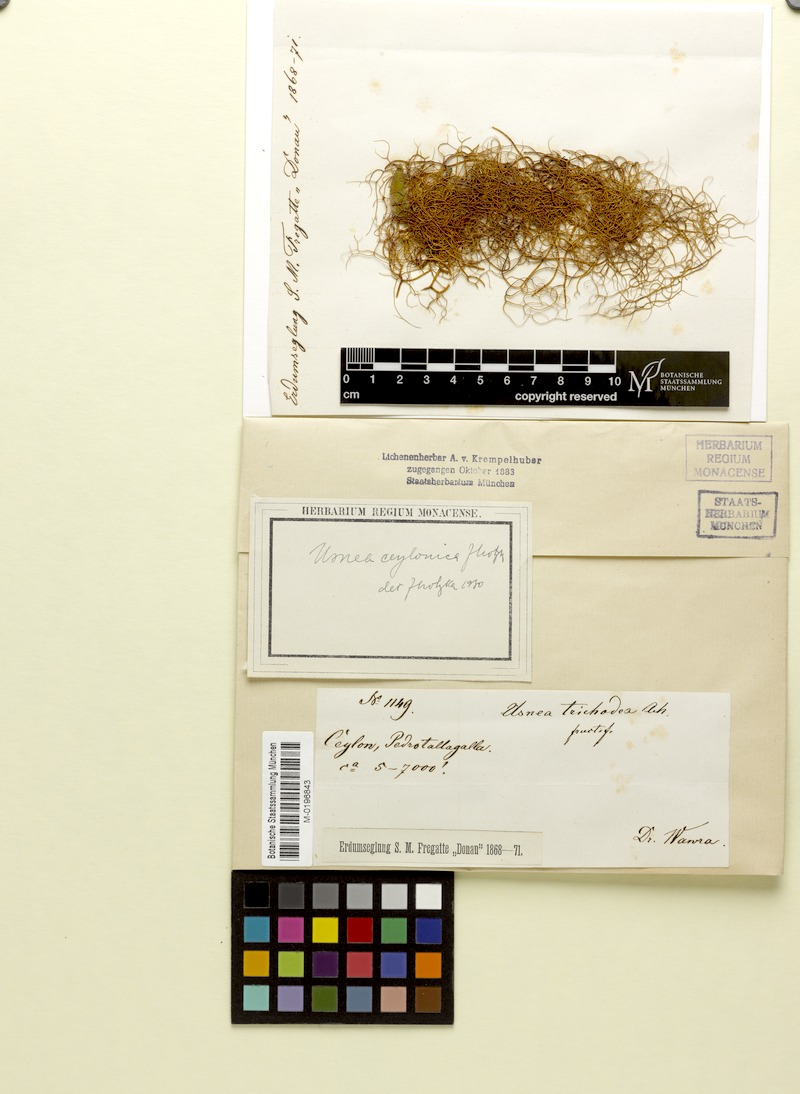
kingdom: Fungi
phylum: Ascomycota
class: Lecanoromycetes
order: Lecanorales
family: Parmeliaceae
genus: Usnea
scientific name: Usnea
